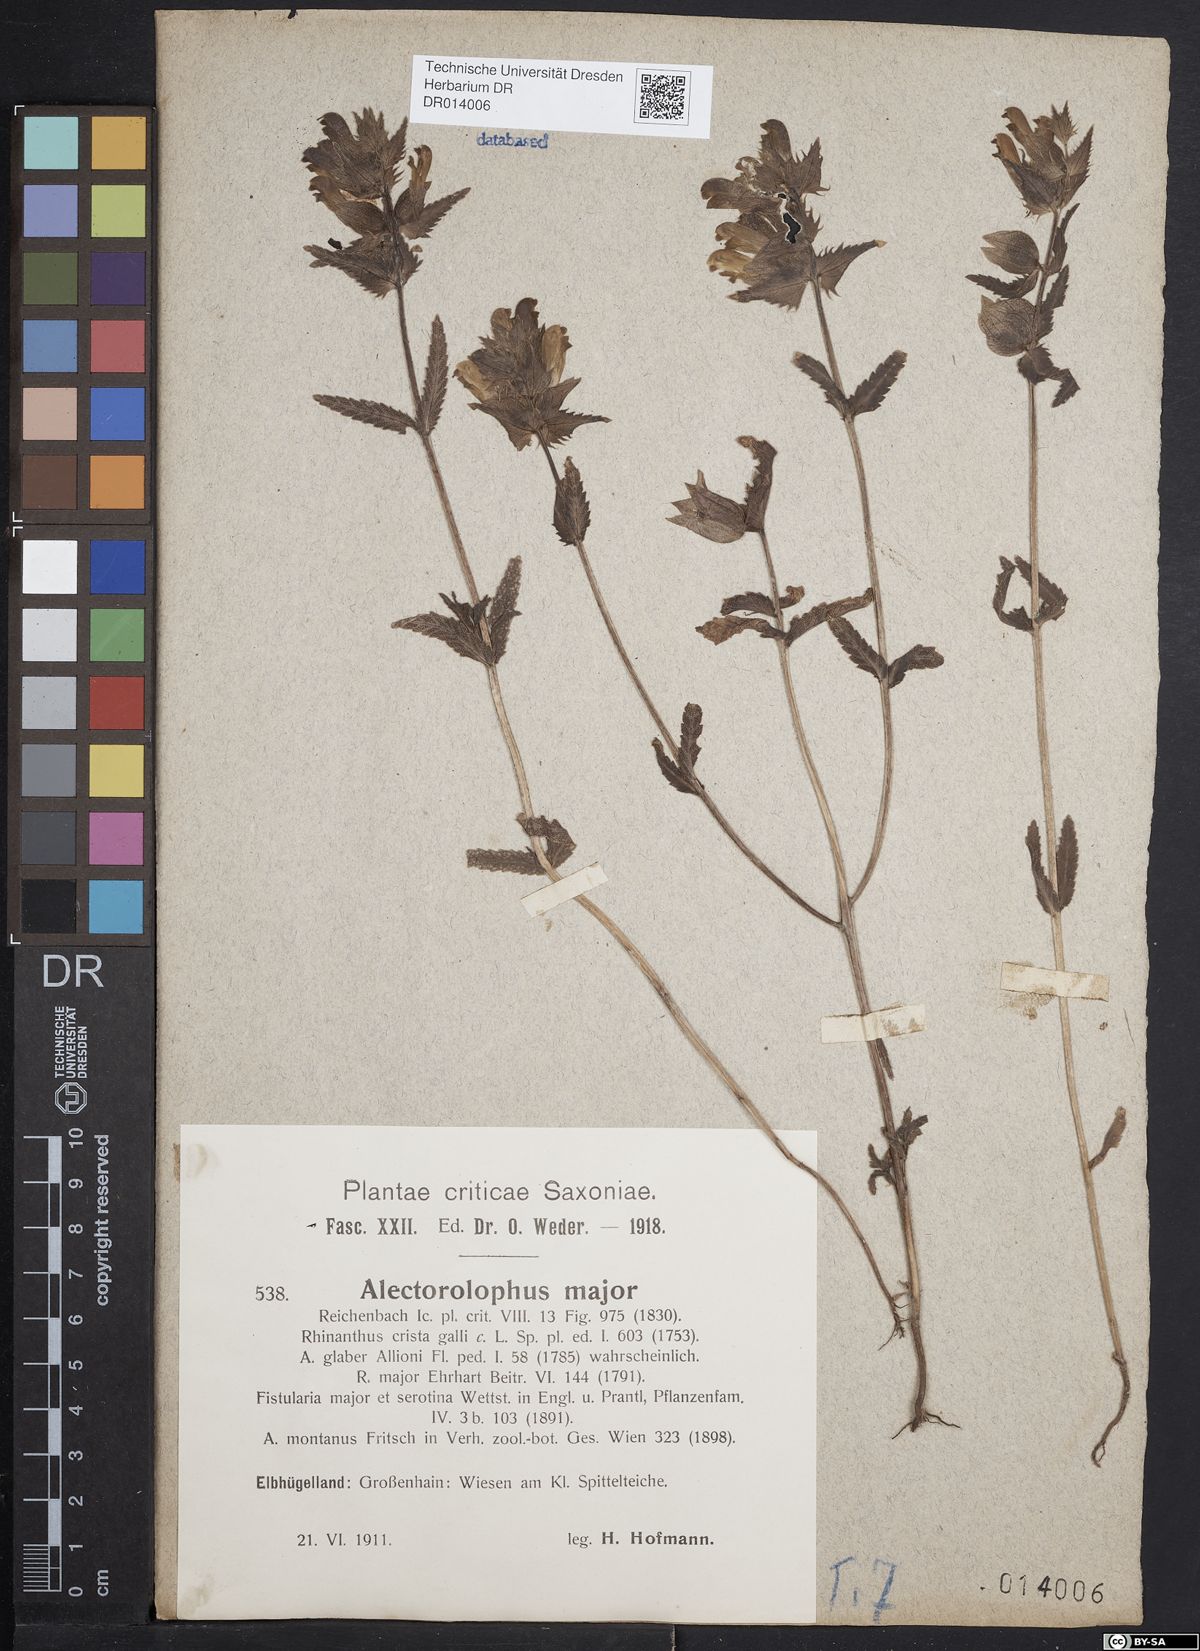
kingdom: Plantae
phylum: Tracheophyta
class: Magnoliopsida
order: Lamiales
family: Orobanchaceae
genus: Rhinanthus
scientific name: Rhinanthus serotinus
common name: Late-flowering yellow rattle
